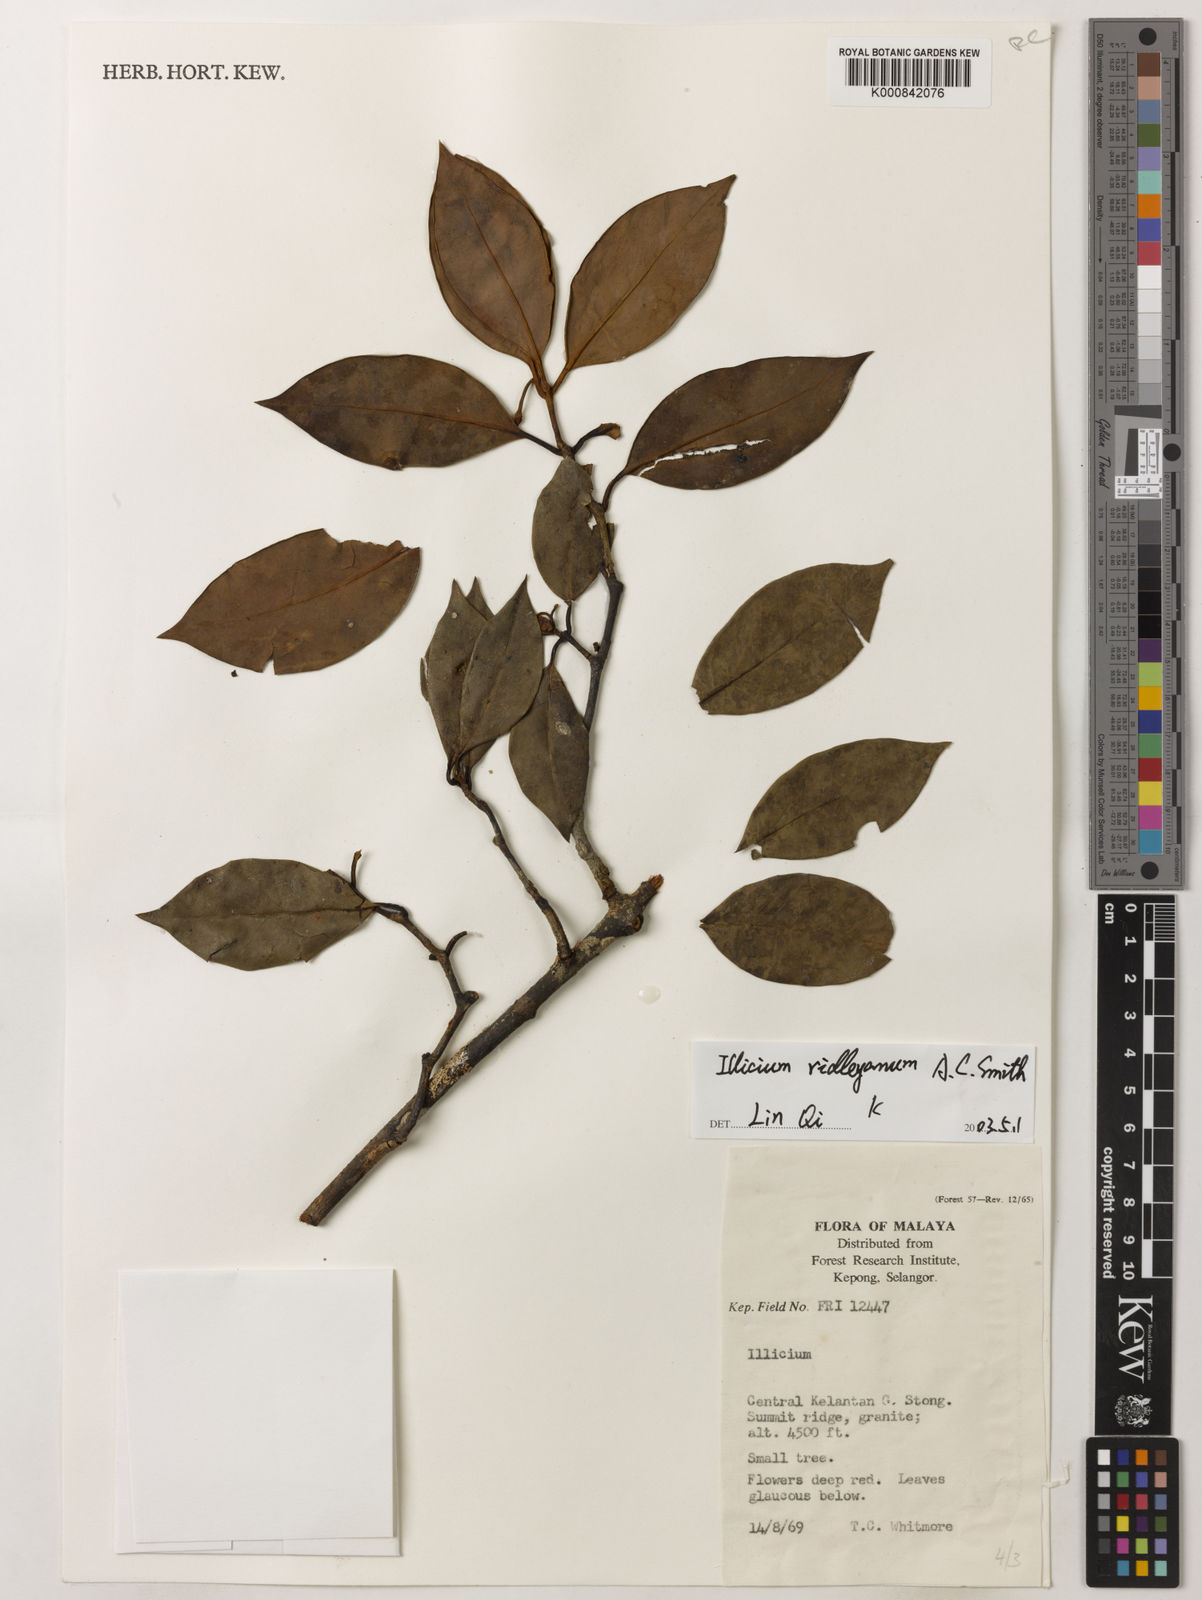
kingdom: Plantae
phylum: Tracheophyta
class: Magnoliopsida
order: Austrobaileyales
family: Schisandraceae
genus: Illicium
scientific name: Illicium ridleyanum
